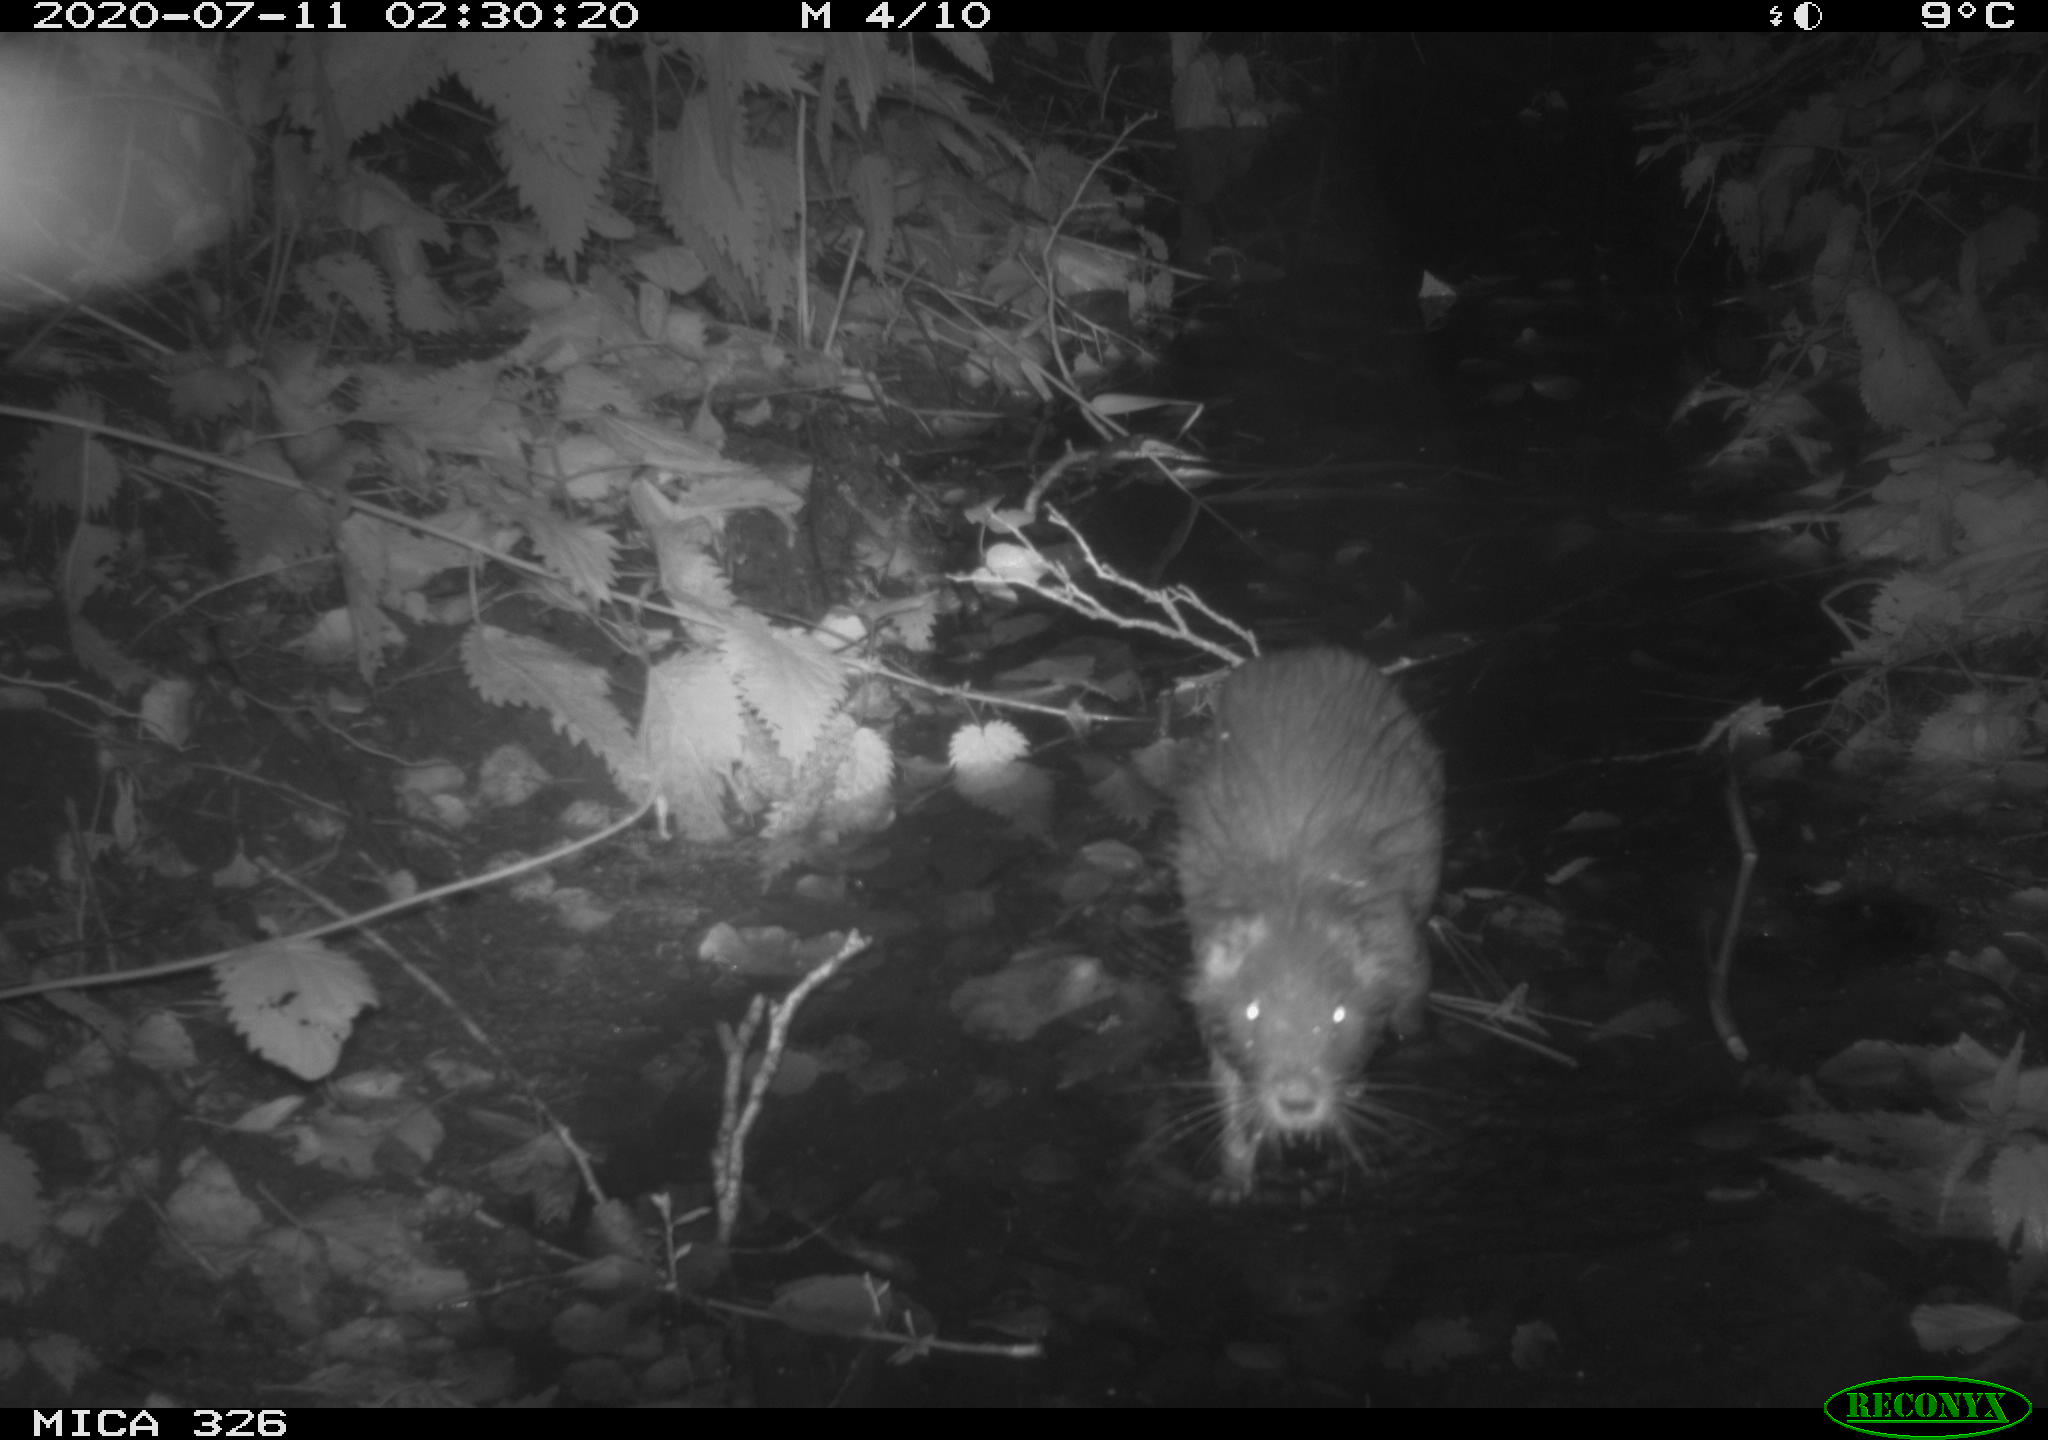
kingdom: Animalia
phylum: Chordata
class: Mammalia
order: Rodentia
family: Myocastoridae
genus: Myocastor
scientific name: Myocastor coypus
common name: Coypu
